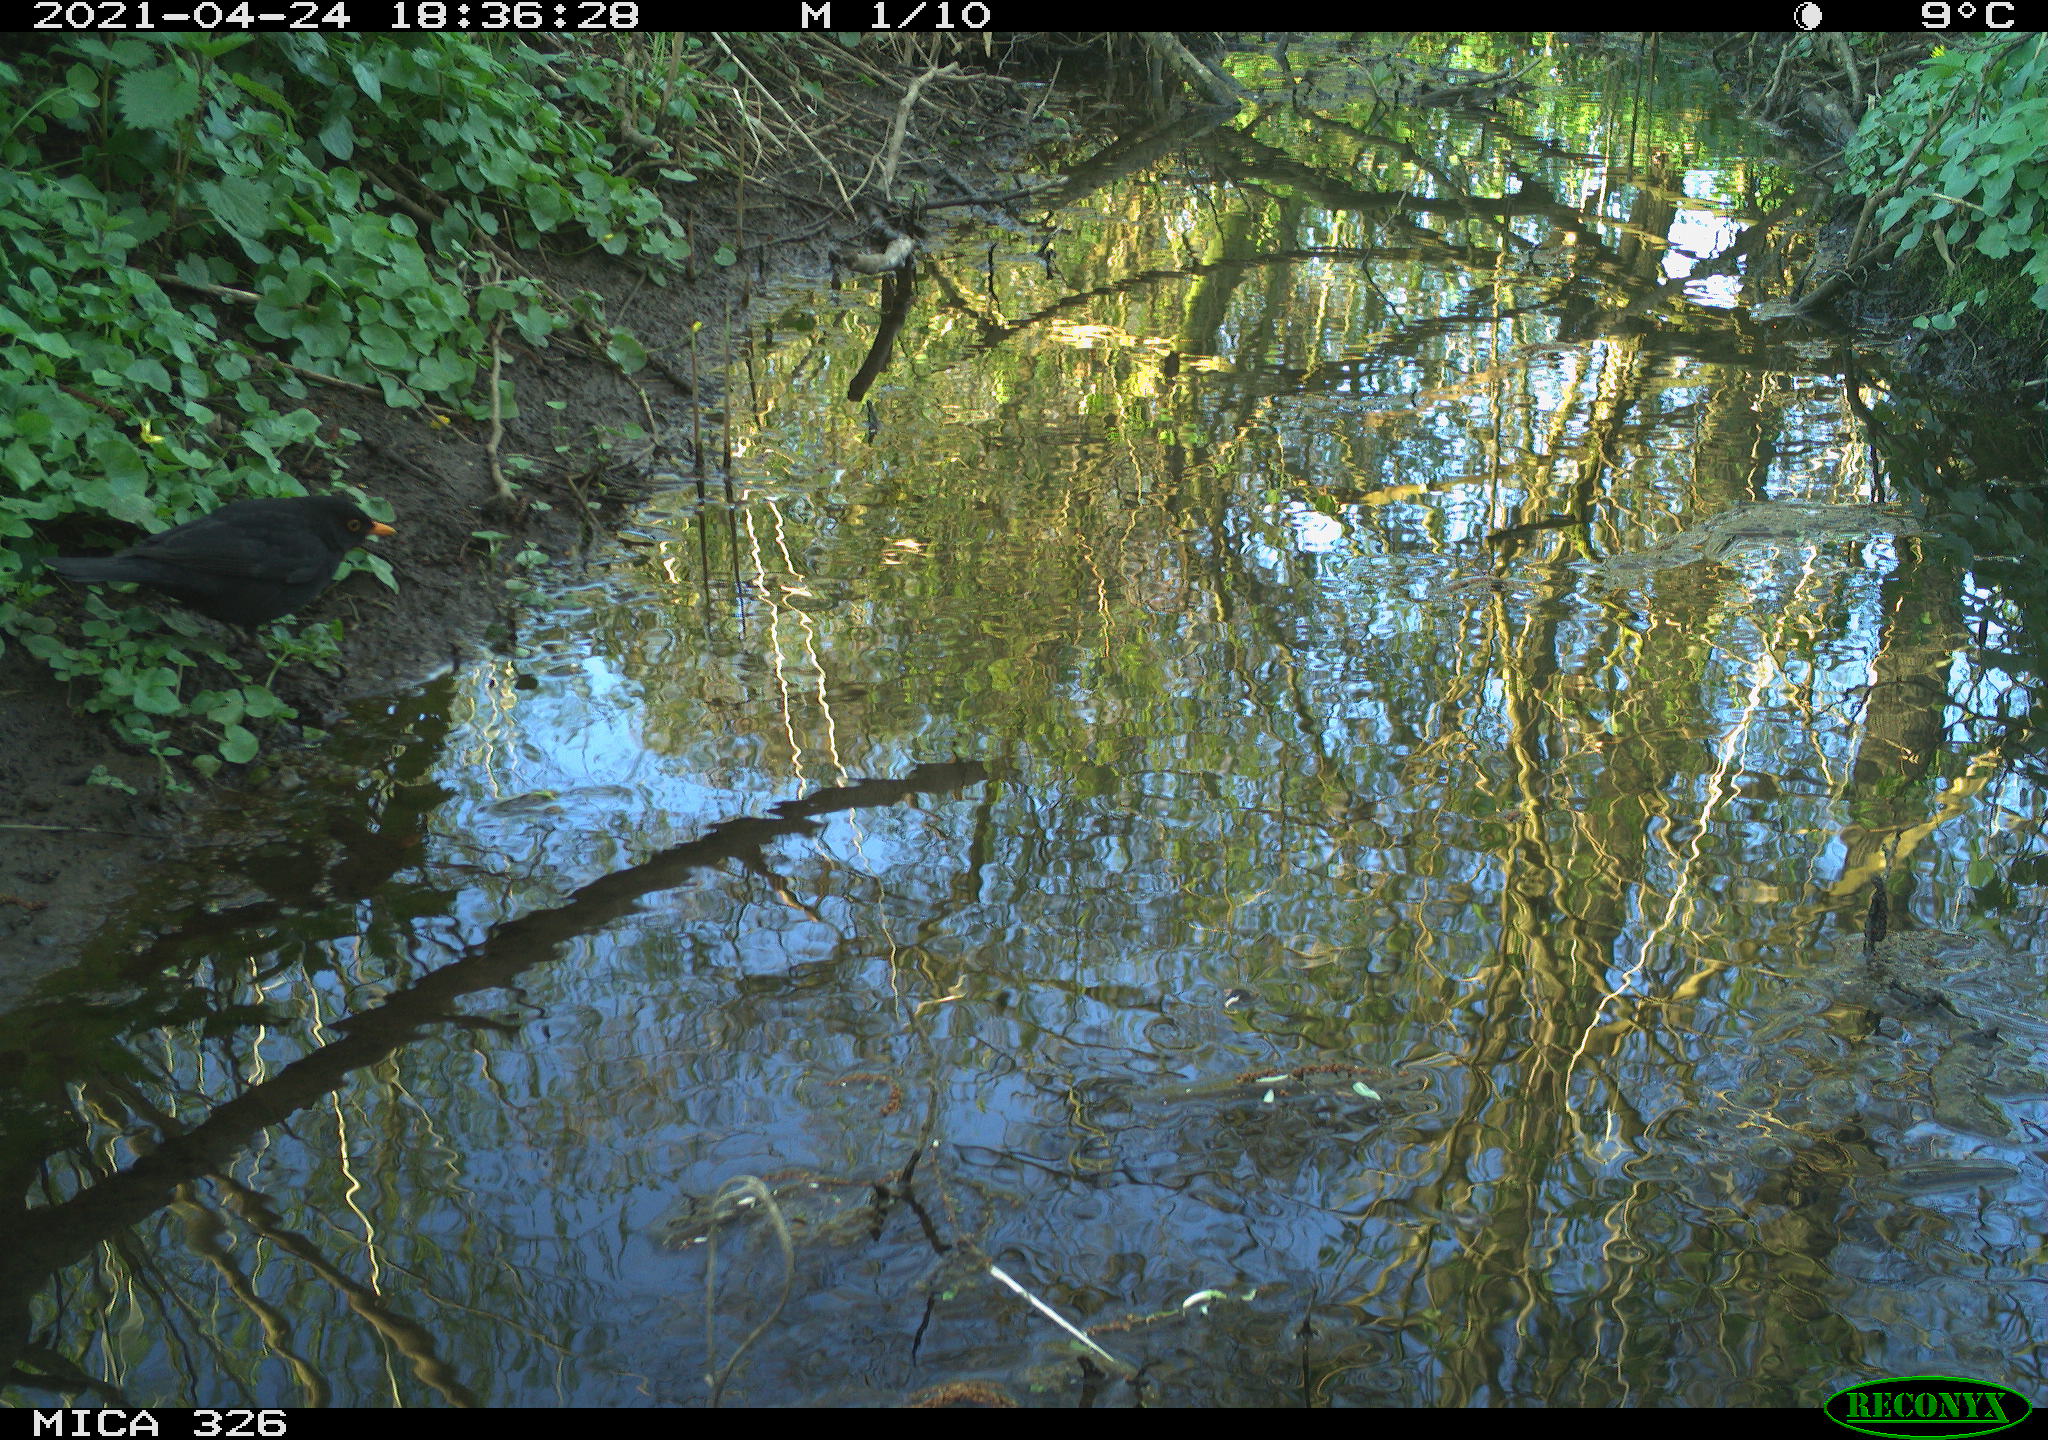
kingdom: Animalia
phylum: Chordata
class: Aves
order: Passeriformes
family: Turdidae
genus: Turdus
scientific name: Turdus merula
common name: Common blackbird
